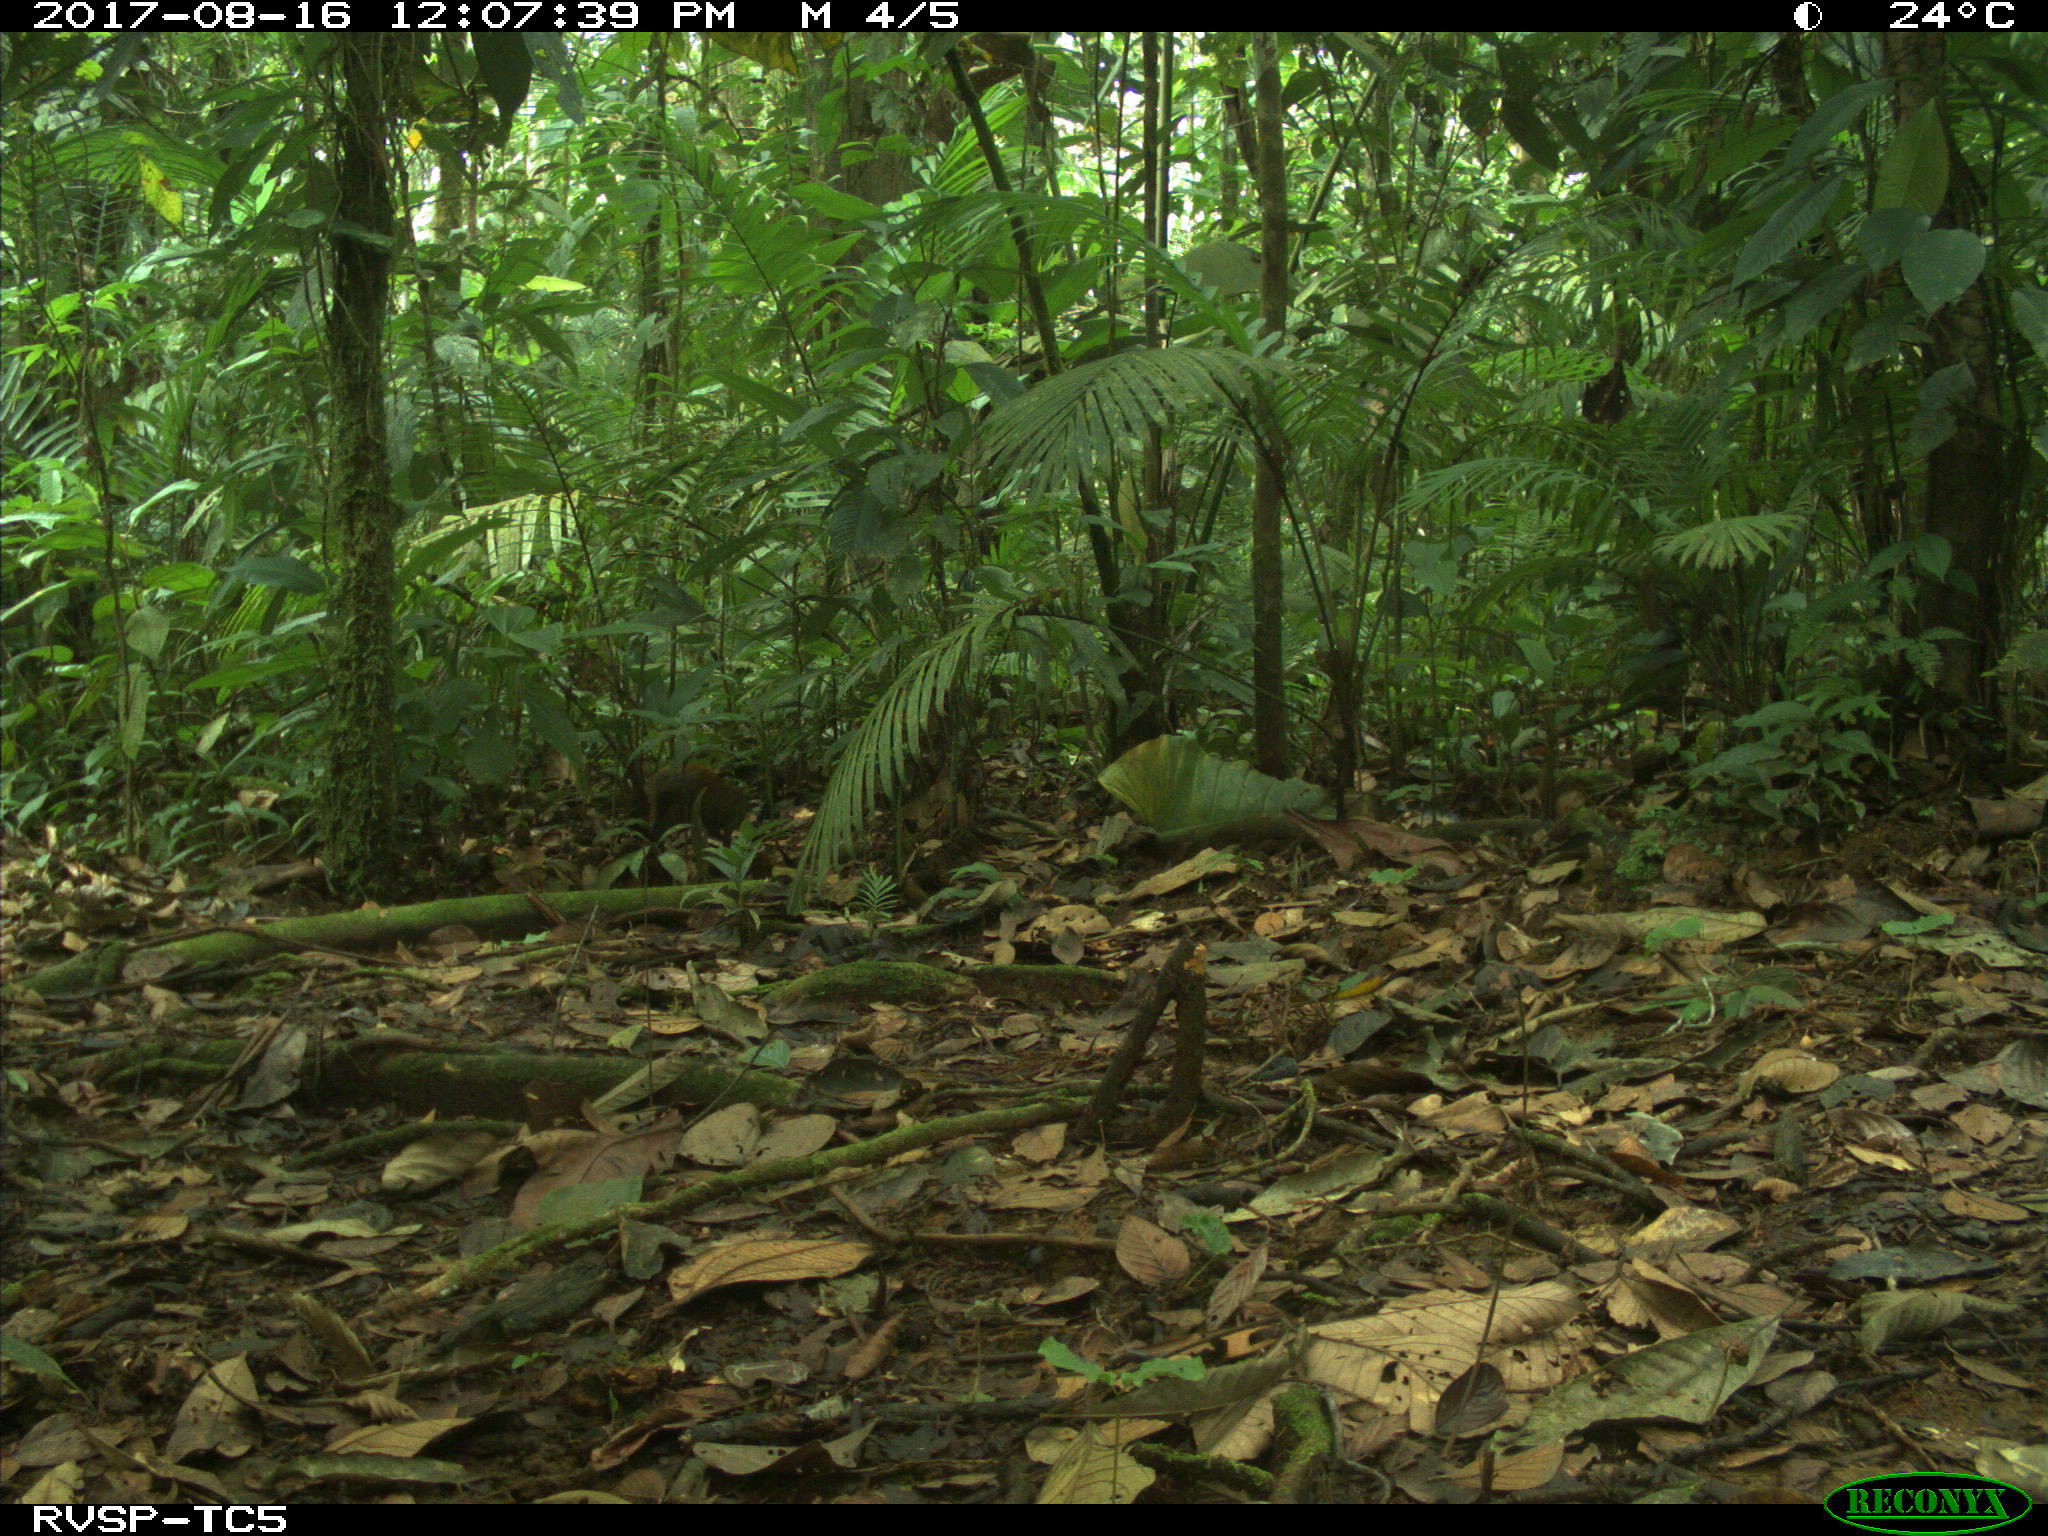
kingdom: Animalia
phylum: Chordata
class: Mammalia
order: Rodentia
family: Dasyproctidae
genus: Dasyprocta
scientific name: Dasyprocta punctata
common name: Central american agouti
